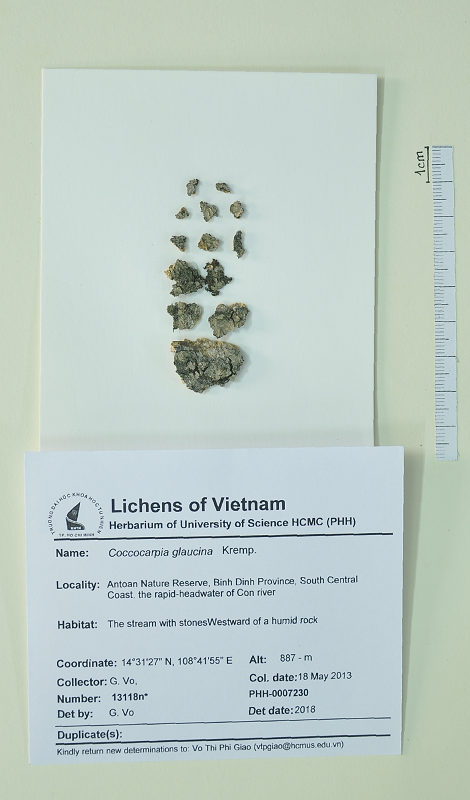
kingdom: Fungi
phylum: Ascomycota
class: Lecanoromycetes
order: Peltigerales
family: Coccocarpiaceae
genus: Coccocarpia
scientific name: Coccocarpia glaucina
